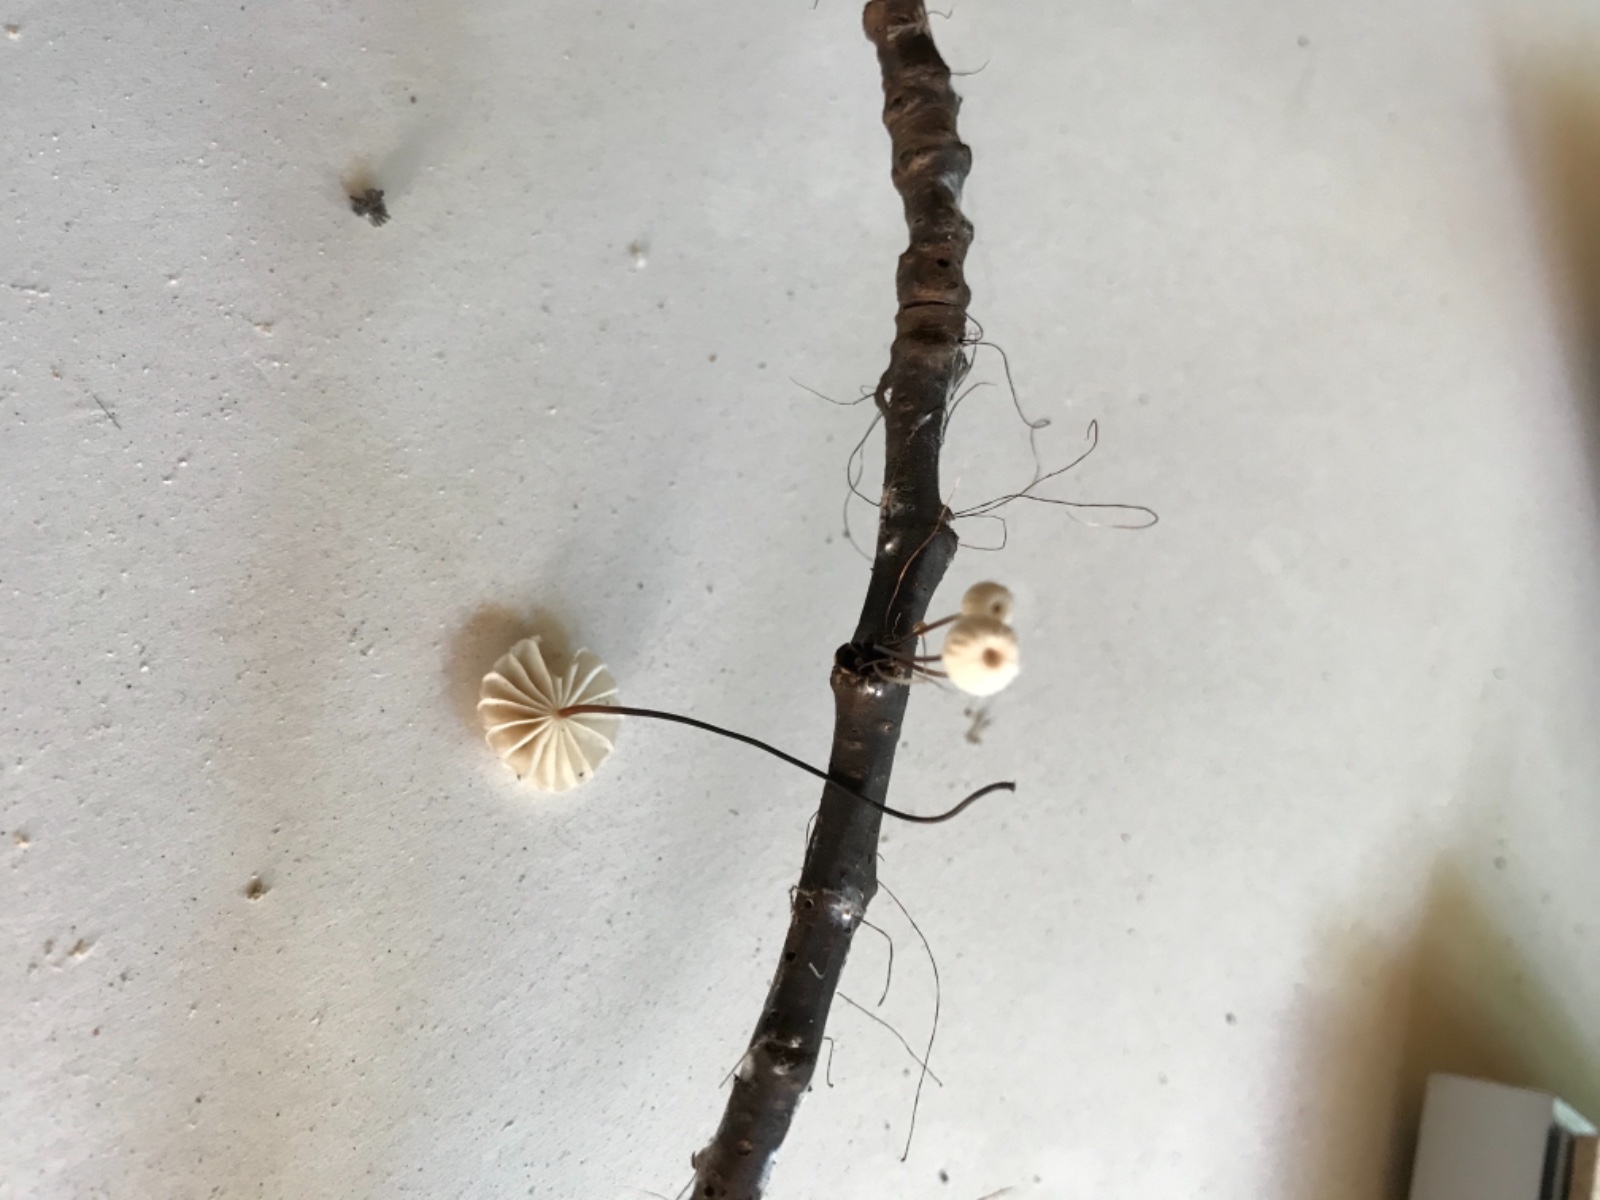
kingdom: Fungi
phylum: Basidiomycota
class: Agaricomycetes
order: Agaricales
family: Marasmiaceae
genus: Marasmius
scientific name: Marasmius rotula
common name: hjul-bruskhat
